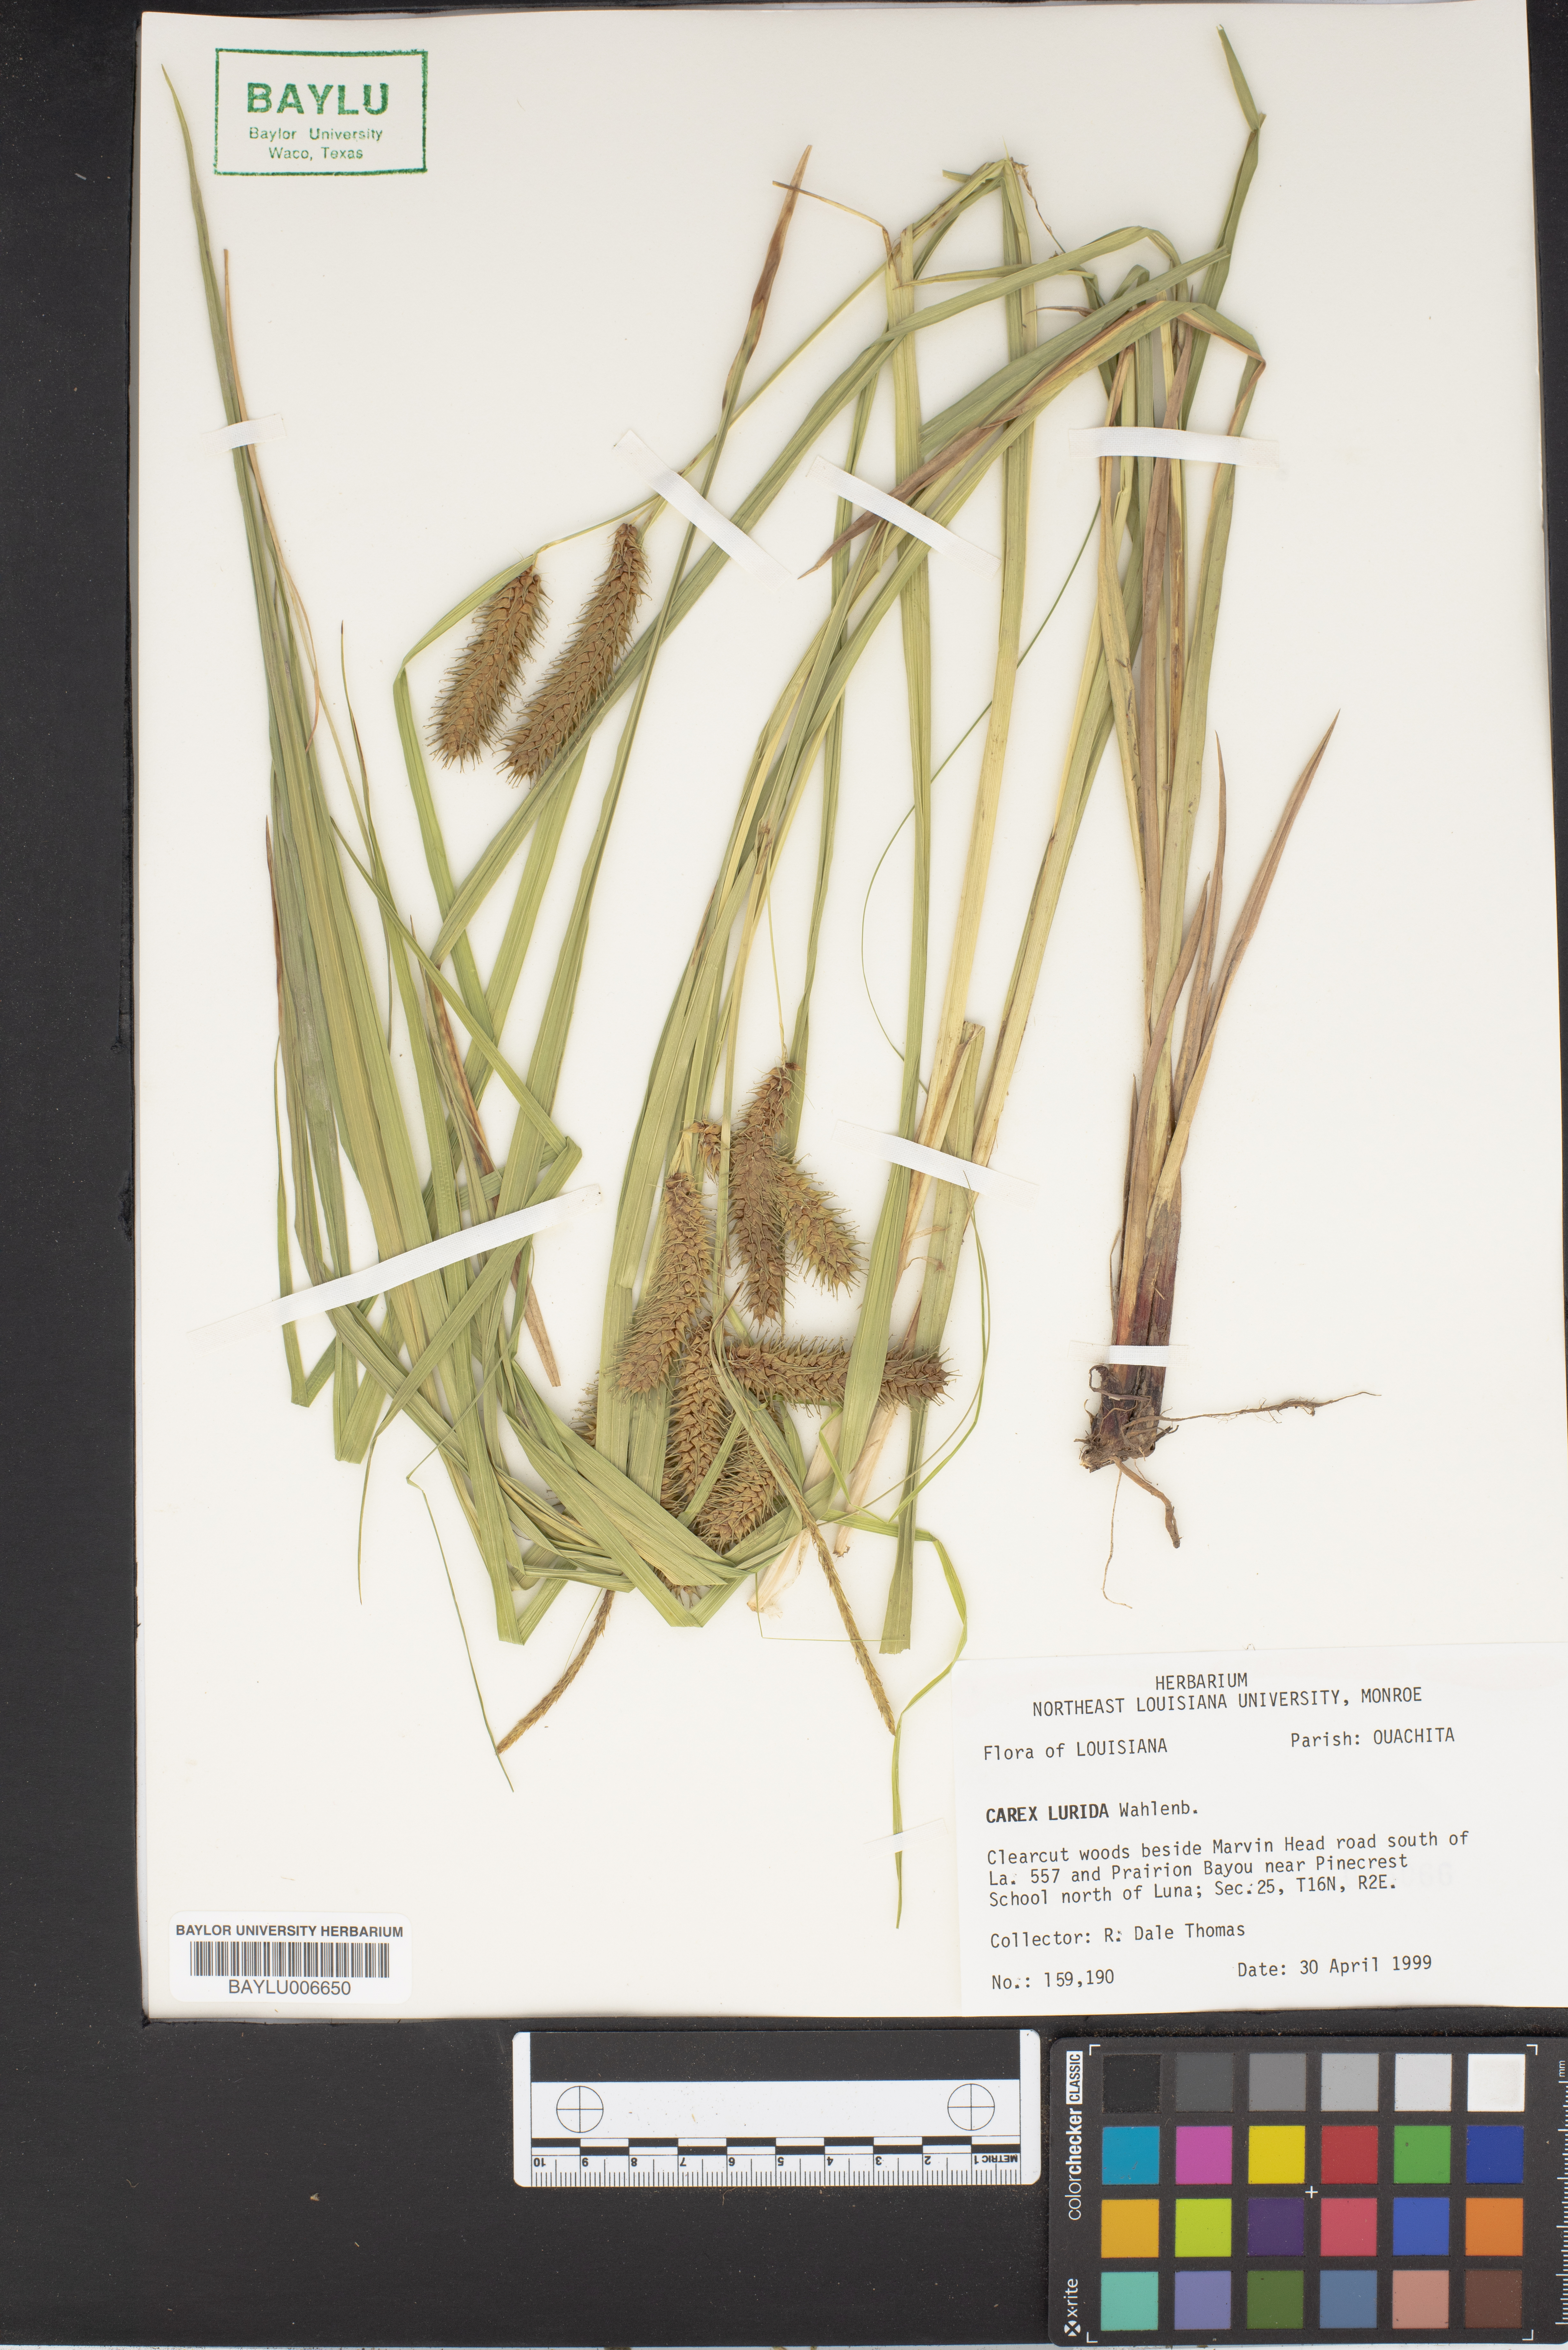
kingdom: Plantae
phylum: Tracheophyta
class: Liliopsida
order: Poales
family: Cyperaceae
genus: Carex
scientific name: Carex lurida
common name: Sallow sedge
